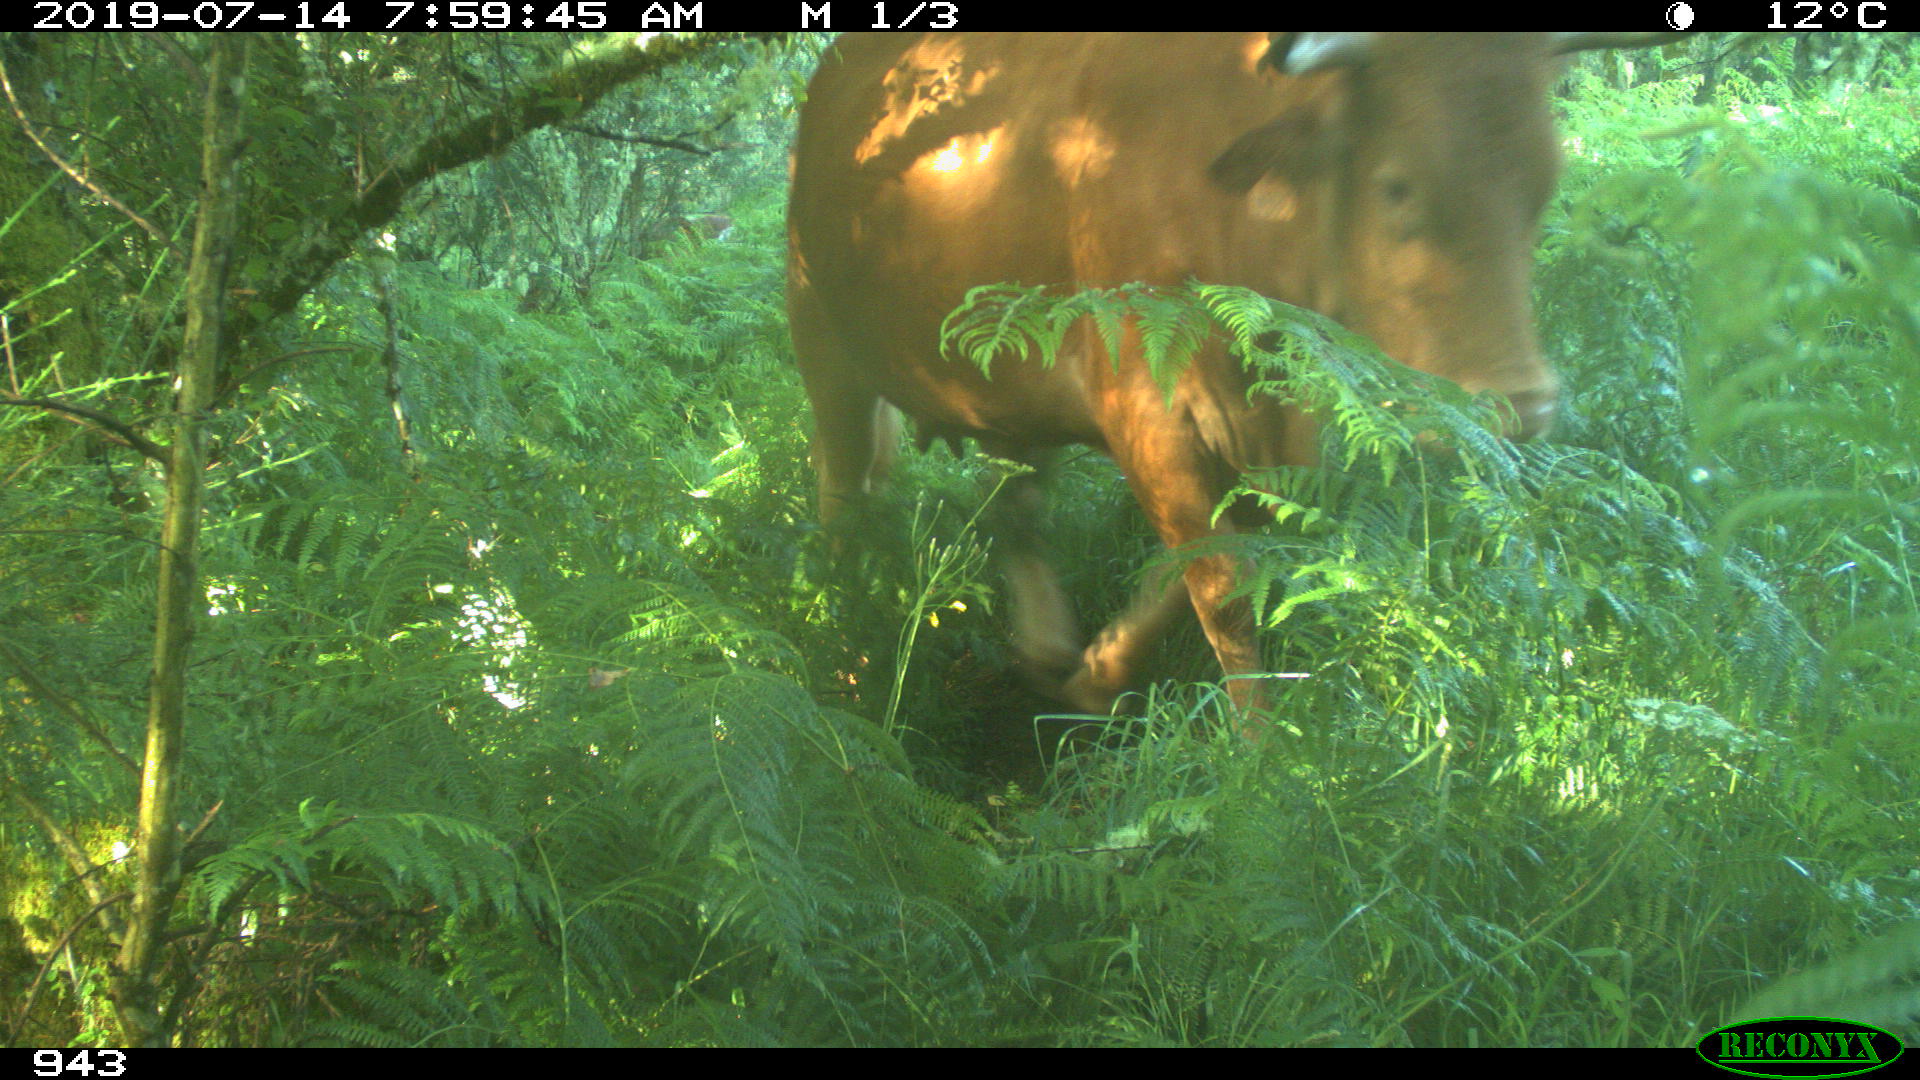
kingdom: Animalia
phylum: Chordata
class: Mammalia
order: Artiodactyla
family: Bovidae
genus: Bos
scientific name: Bos taurus
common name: Domesticated cattle
